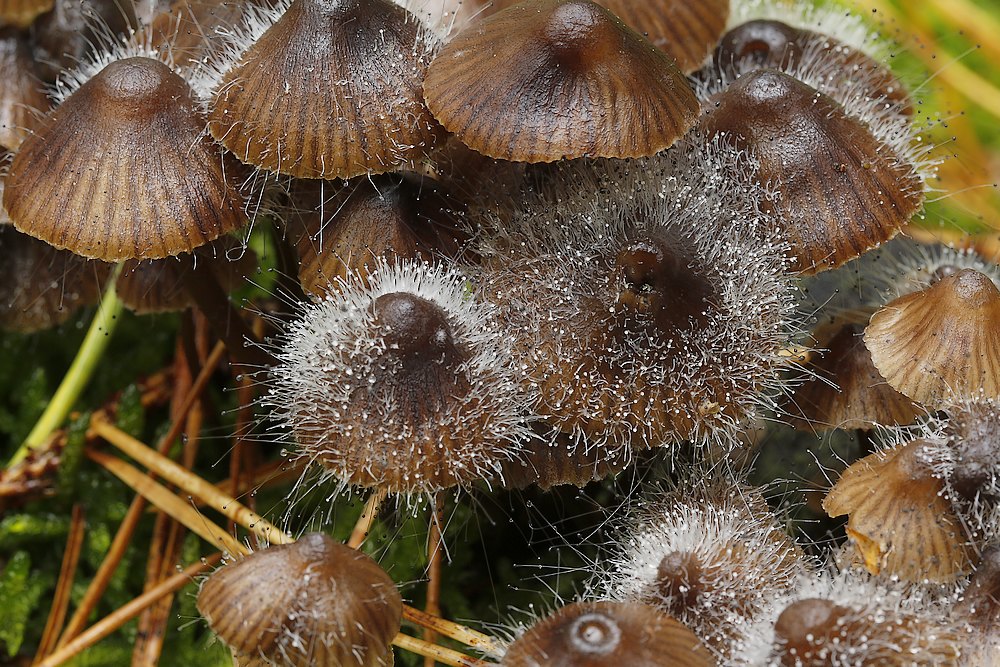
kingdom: Fungi
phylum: Mucoromycota
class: Mucoromycetes
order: Mucorales
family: Phycomycetaceae
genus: Spinellus
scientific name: Spinellus fusiger
